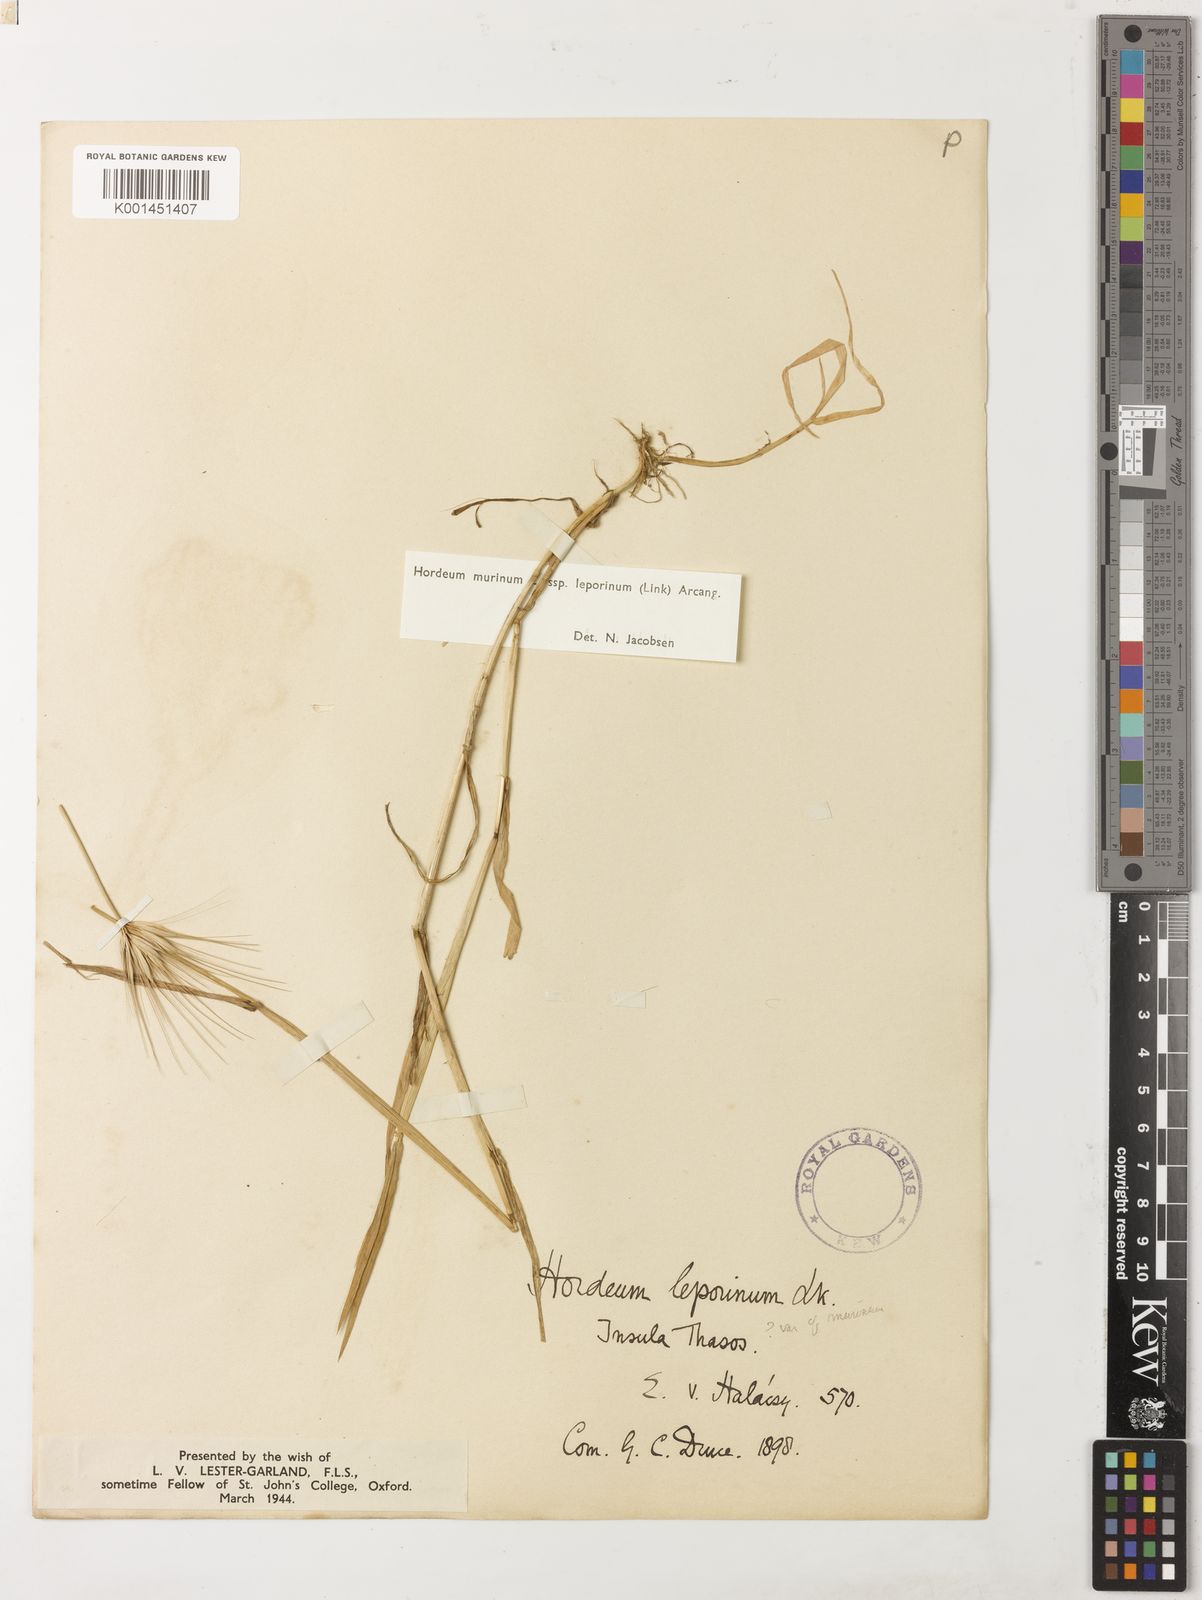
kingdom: Plantae
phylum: Tracheophyta
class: Liliopsida
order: Poales
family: Poaceae
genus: Hordeum
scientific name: Hordeum murinum
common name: Wall barley
